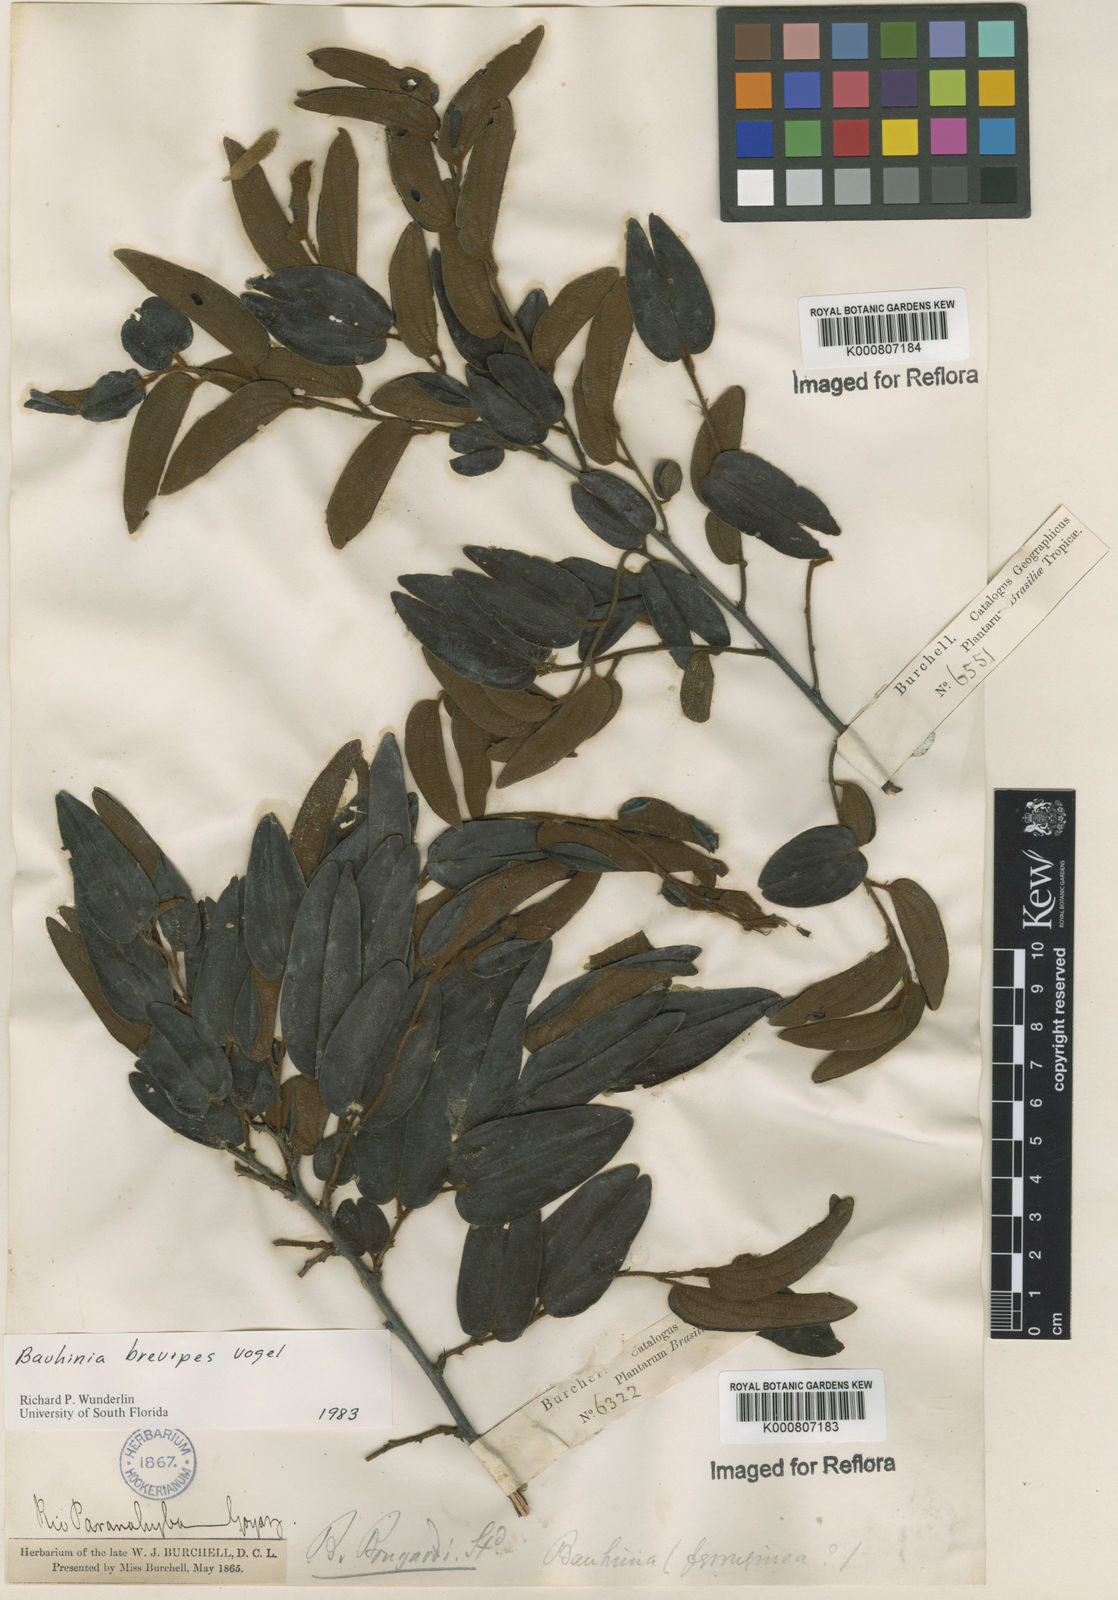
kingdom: Plantae
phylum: Tracheophyta
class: Magnoliopsida
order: Fabales
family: Fabaceae
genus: Bauhinia
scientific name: Bauhinia brevipes
